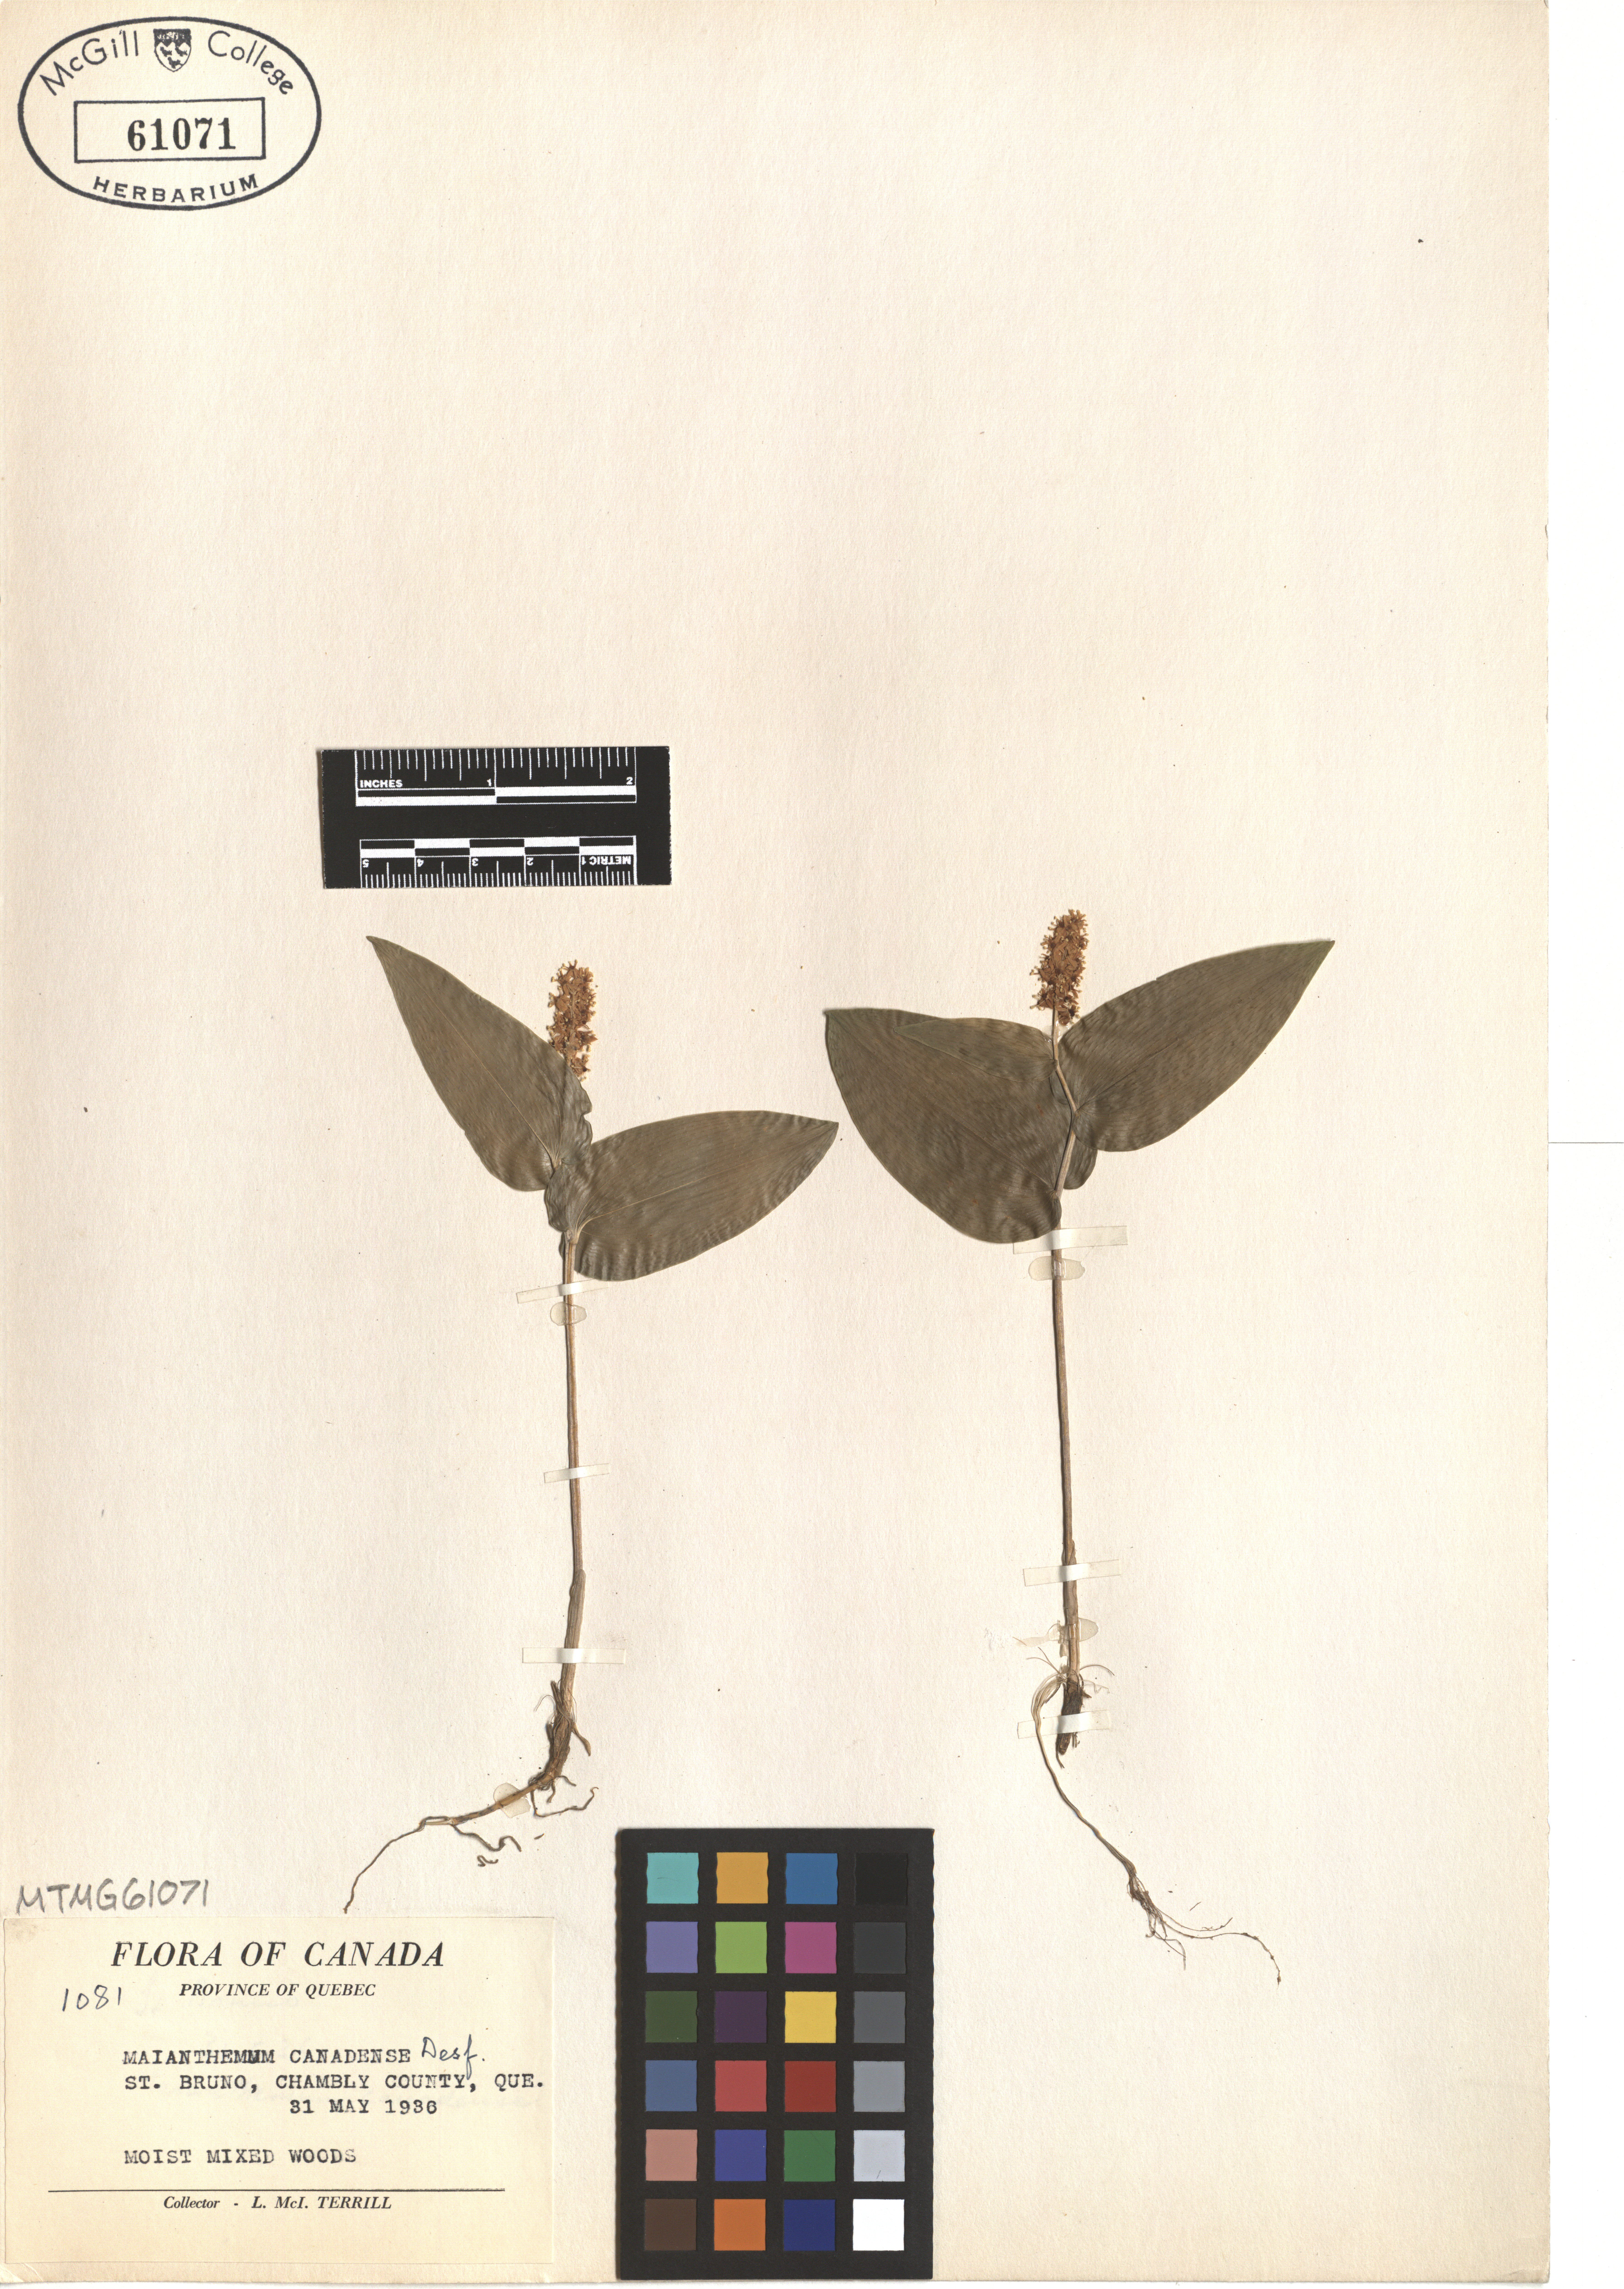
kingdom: Plantae
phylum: Tracheophyta
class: Liliopsida
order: Asparagales
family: Asparagaceae
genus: Maianthemum
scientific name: Maianthemum canadense
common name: False lily-of-the-valley
